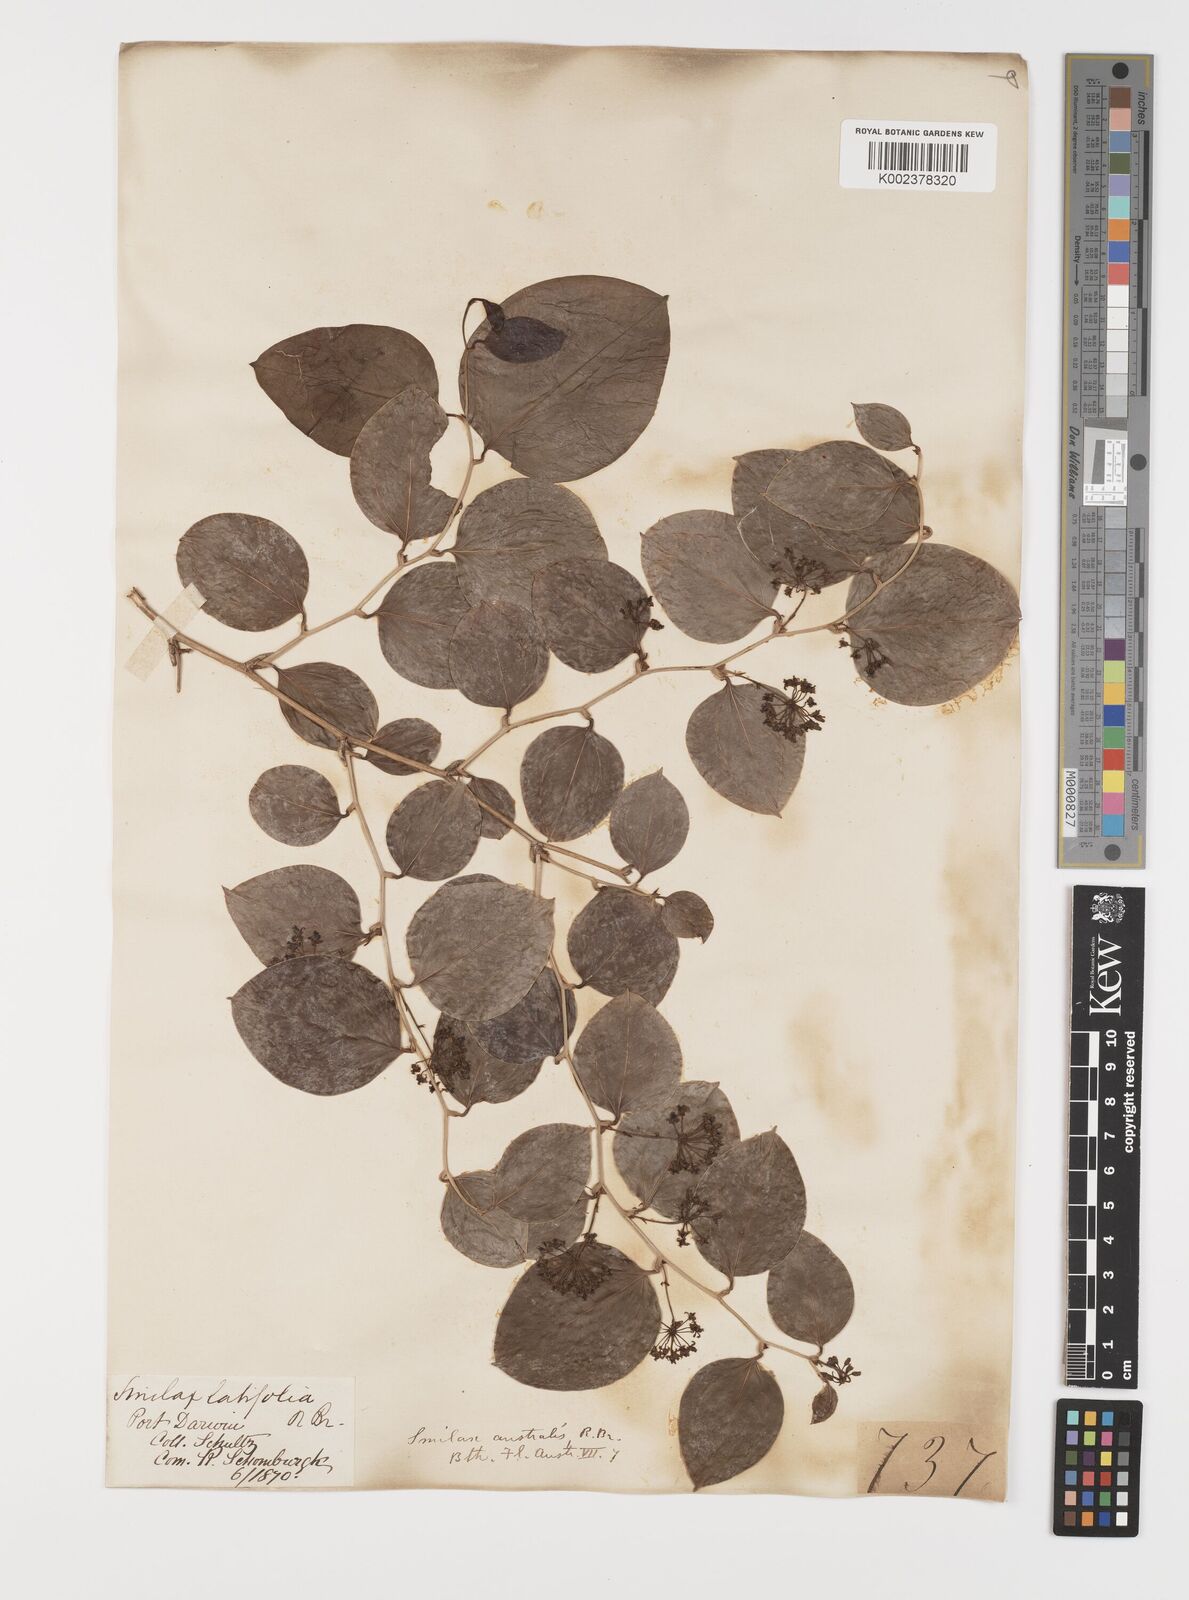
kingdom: Plantae
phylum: Tracheophyta
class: Liliopsida
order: Liliales
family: Smilacaceae
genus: Smilax
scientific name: Smilax australis
